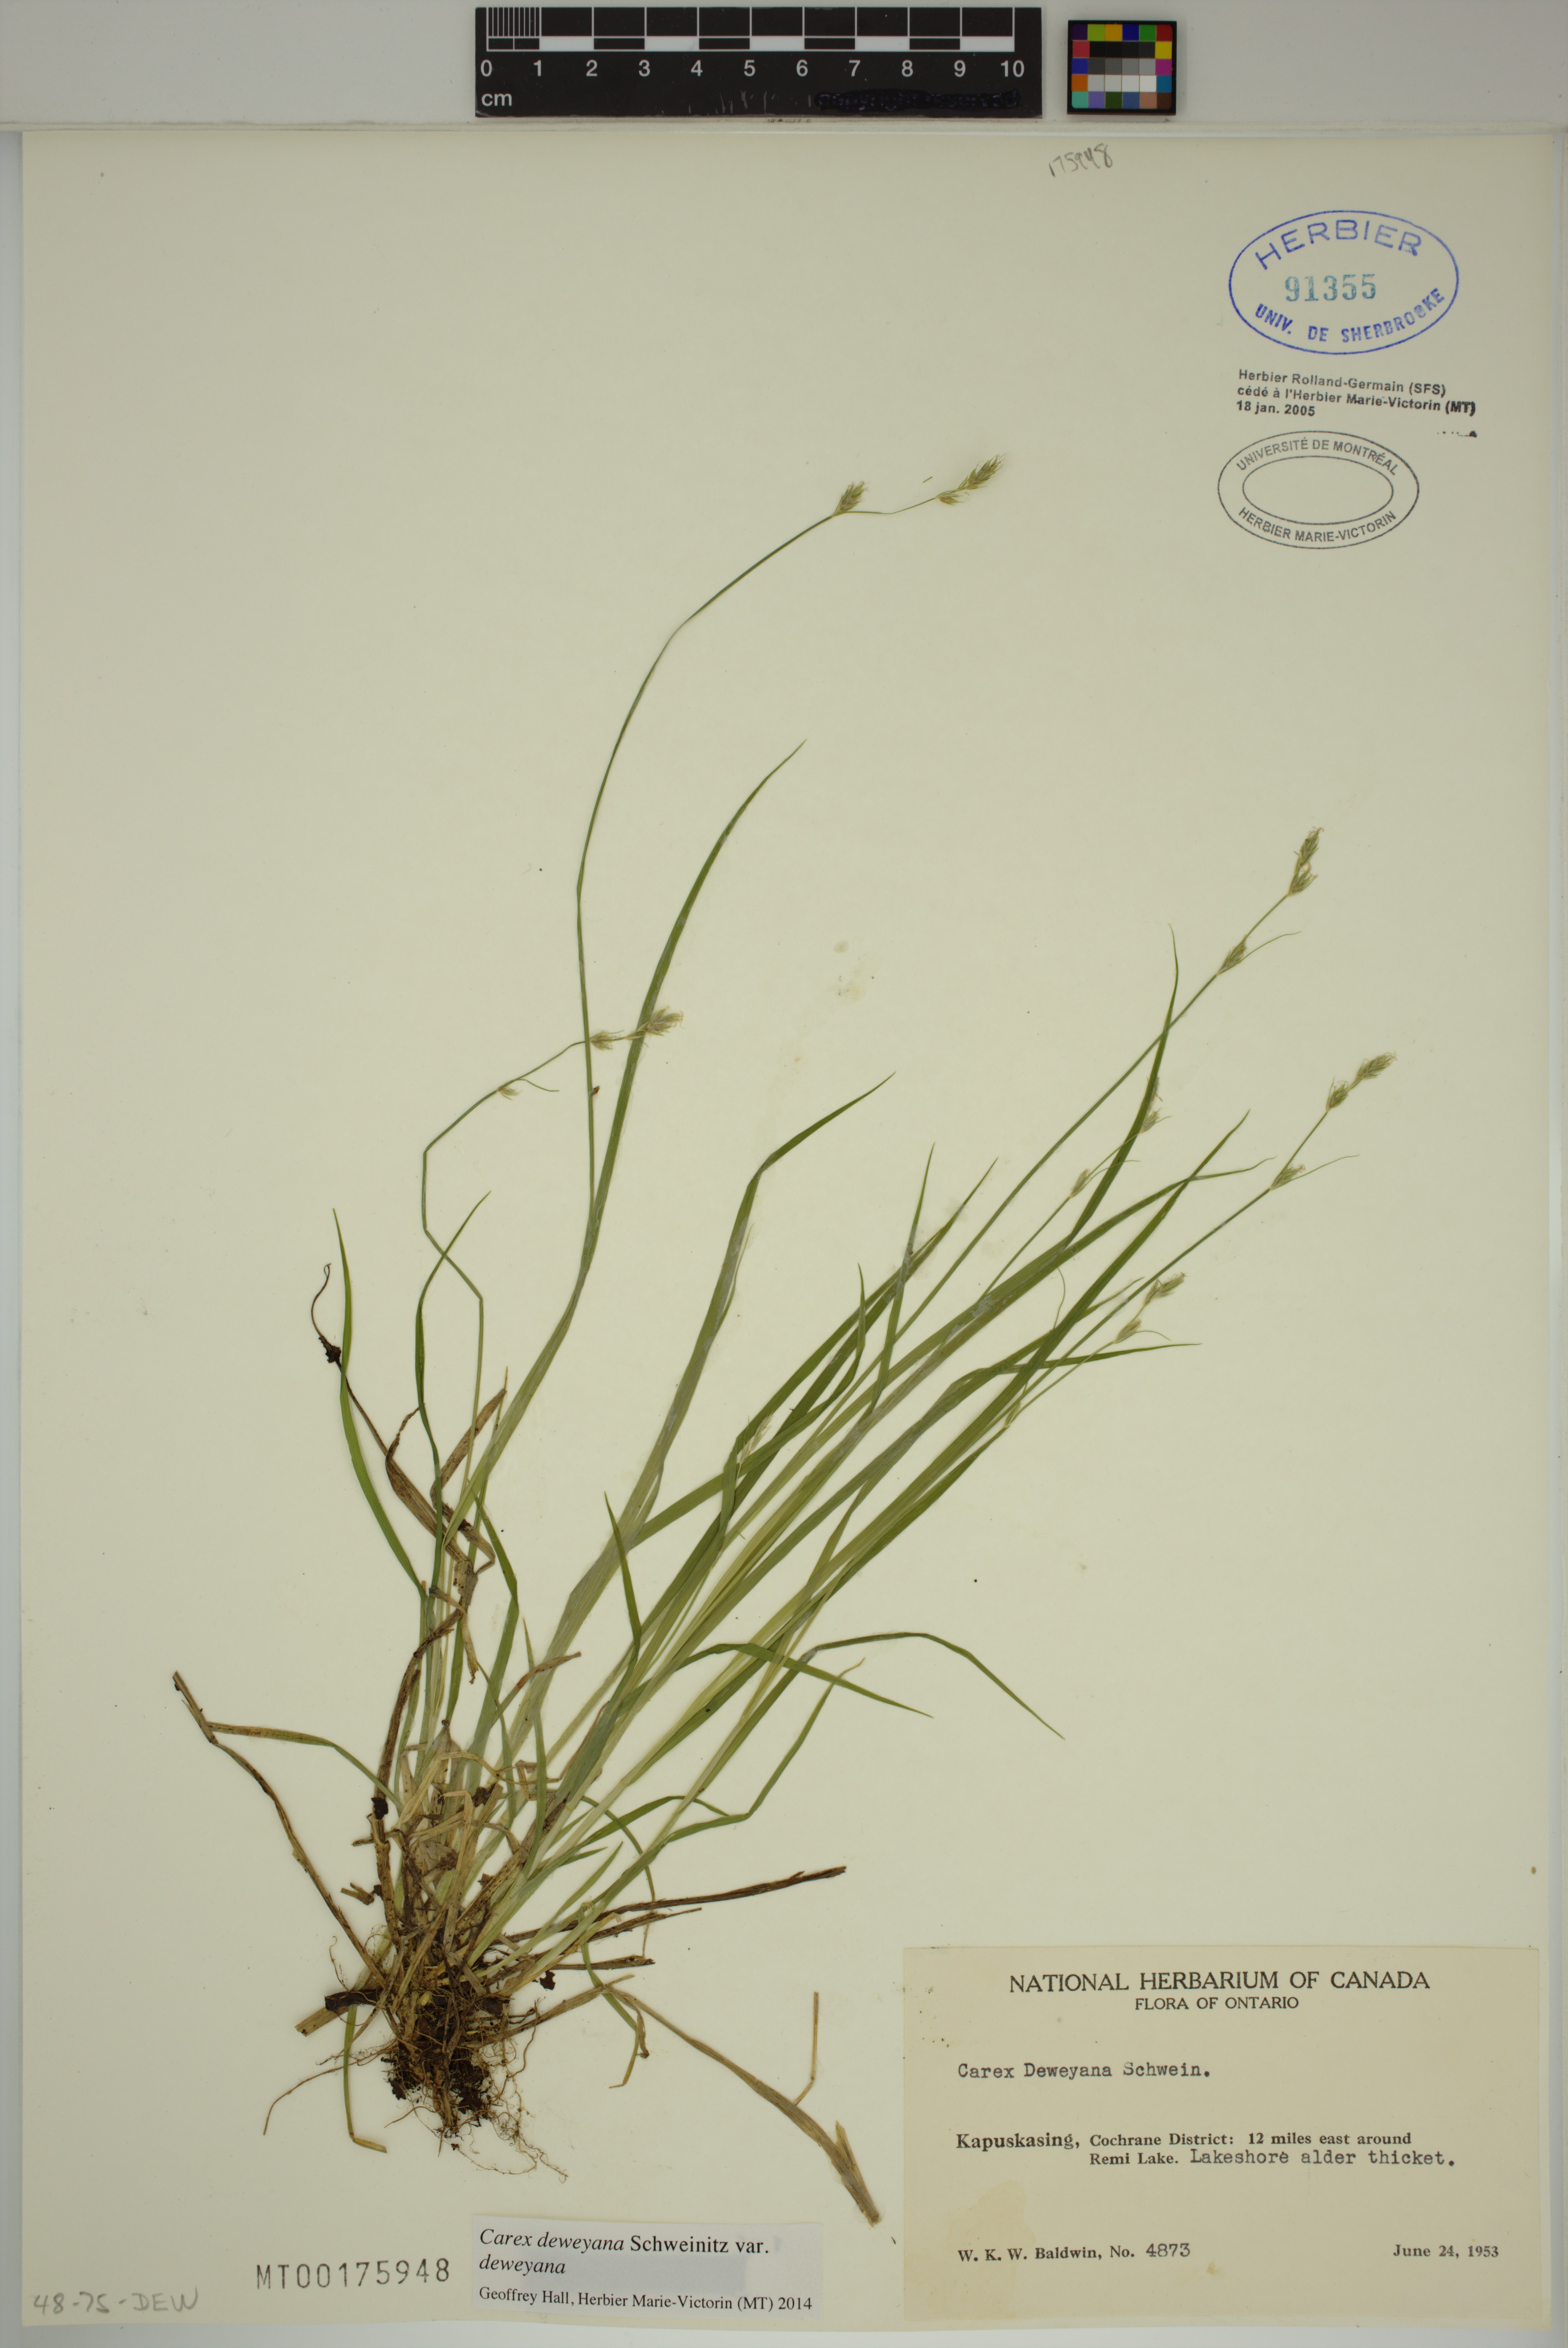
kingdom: Plantae
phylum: Tracheophyta
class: Liliopsida
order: Poales
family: Cyperaceae
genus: Carex
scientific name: Carex deweyana
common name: Dewey's sedge
